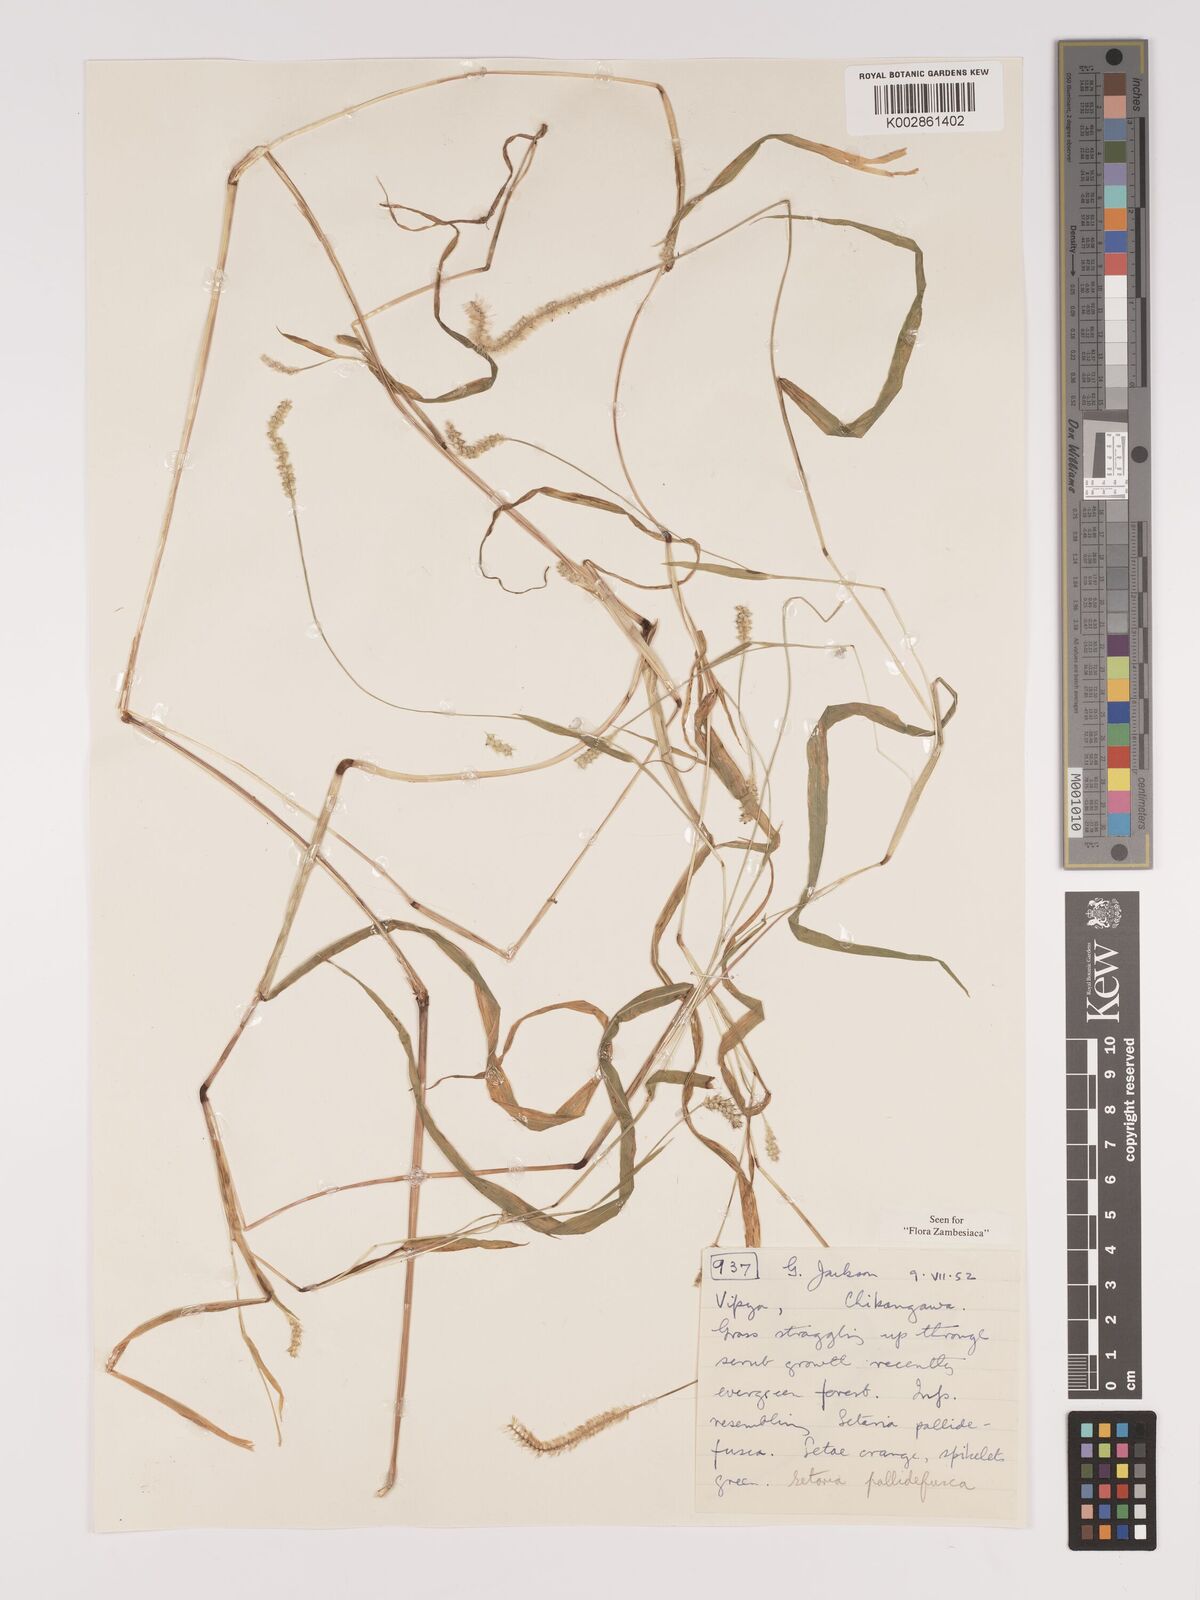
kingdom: Plantae
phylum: Tracheophyta
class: Liliopsida
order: Poales
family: Poaceae
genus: Setaria
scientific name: Setaria pumila
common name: Yellow bristle-grass
